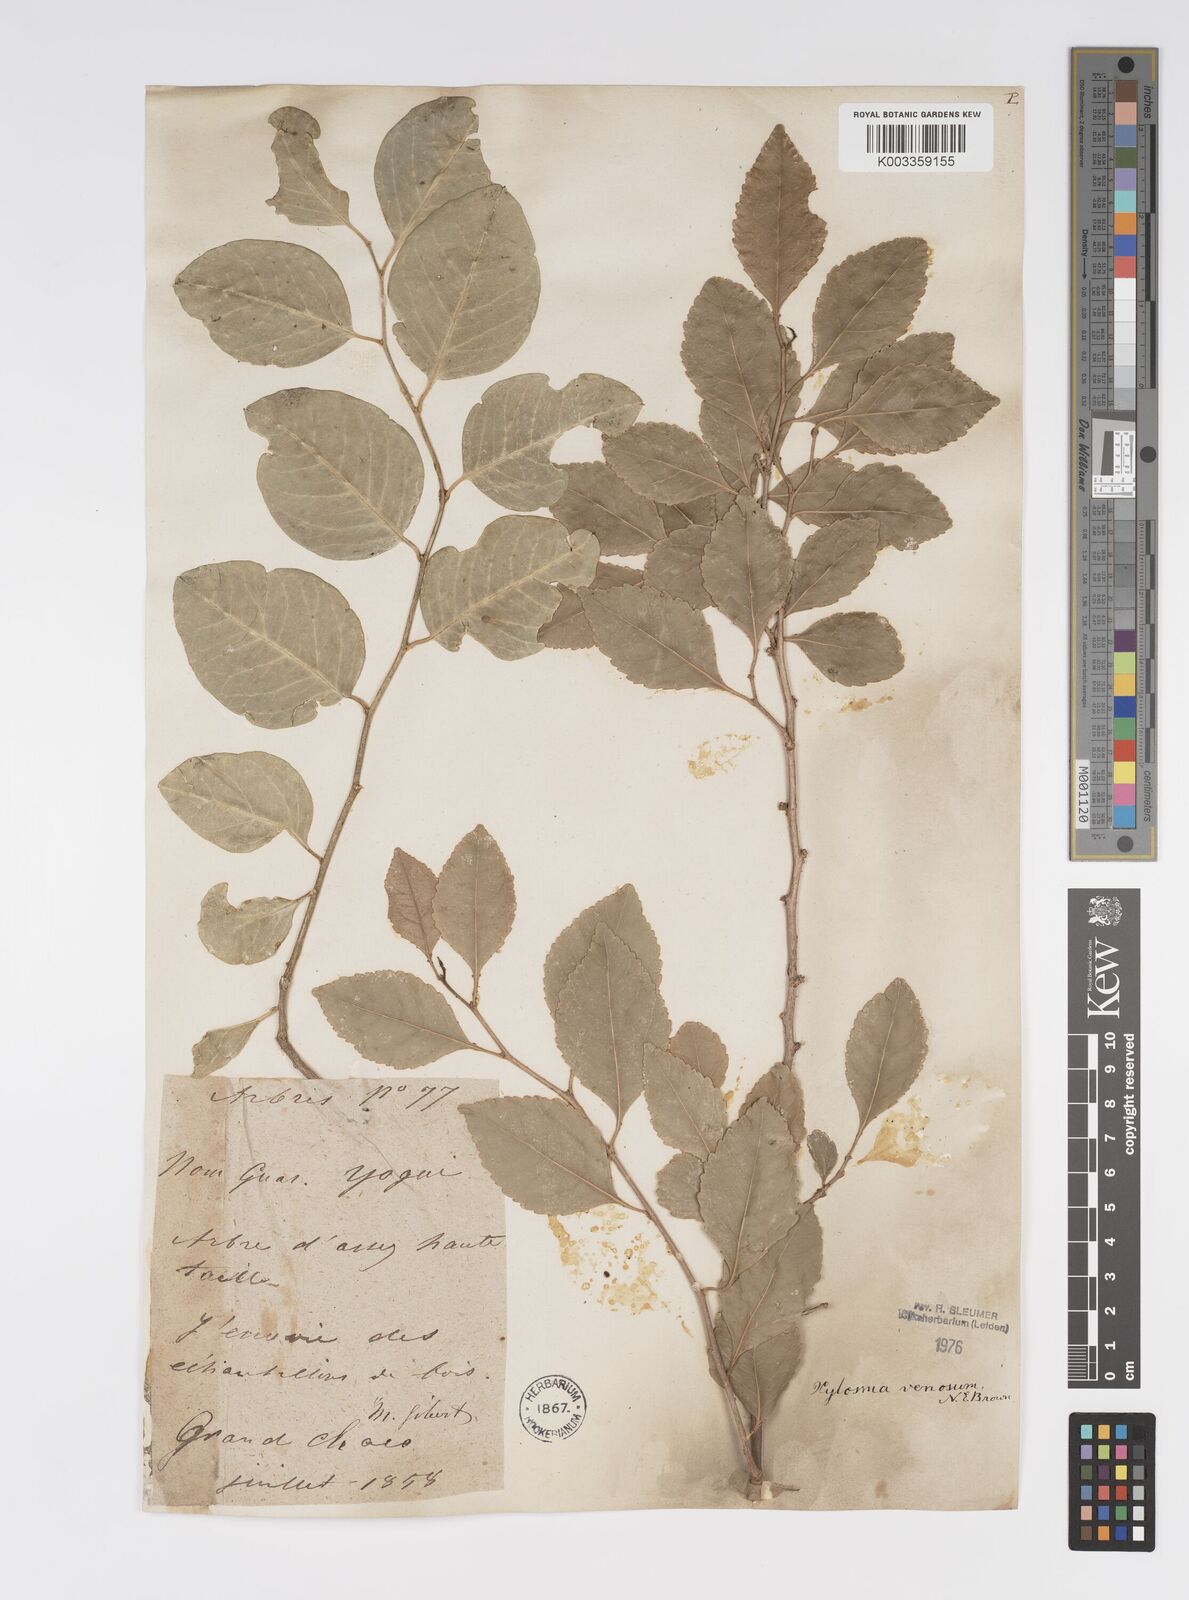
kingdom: Plantae
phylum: Tracheophyta
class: Magnoliopsida
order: Malpighiales
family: Salicaceae
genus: Xylosma
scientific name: Xylosma venosa
